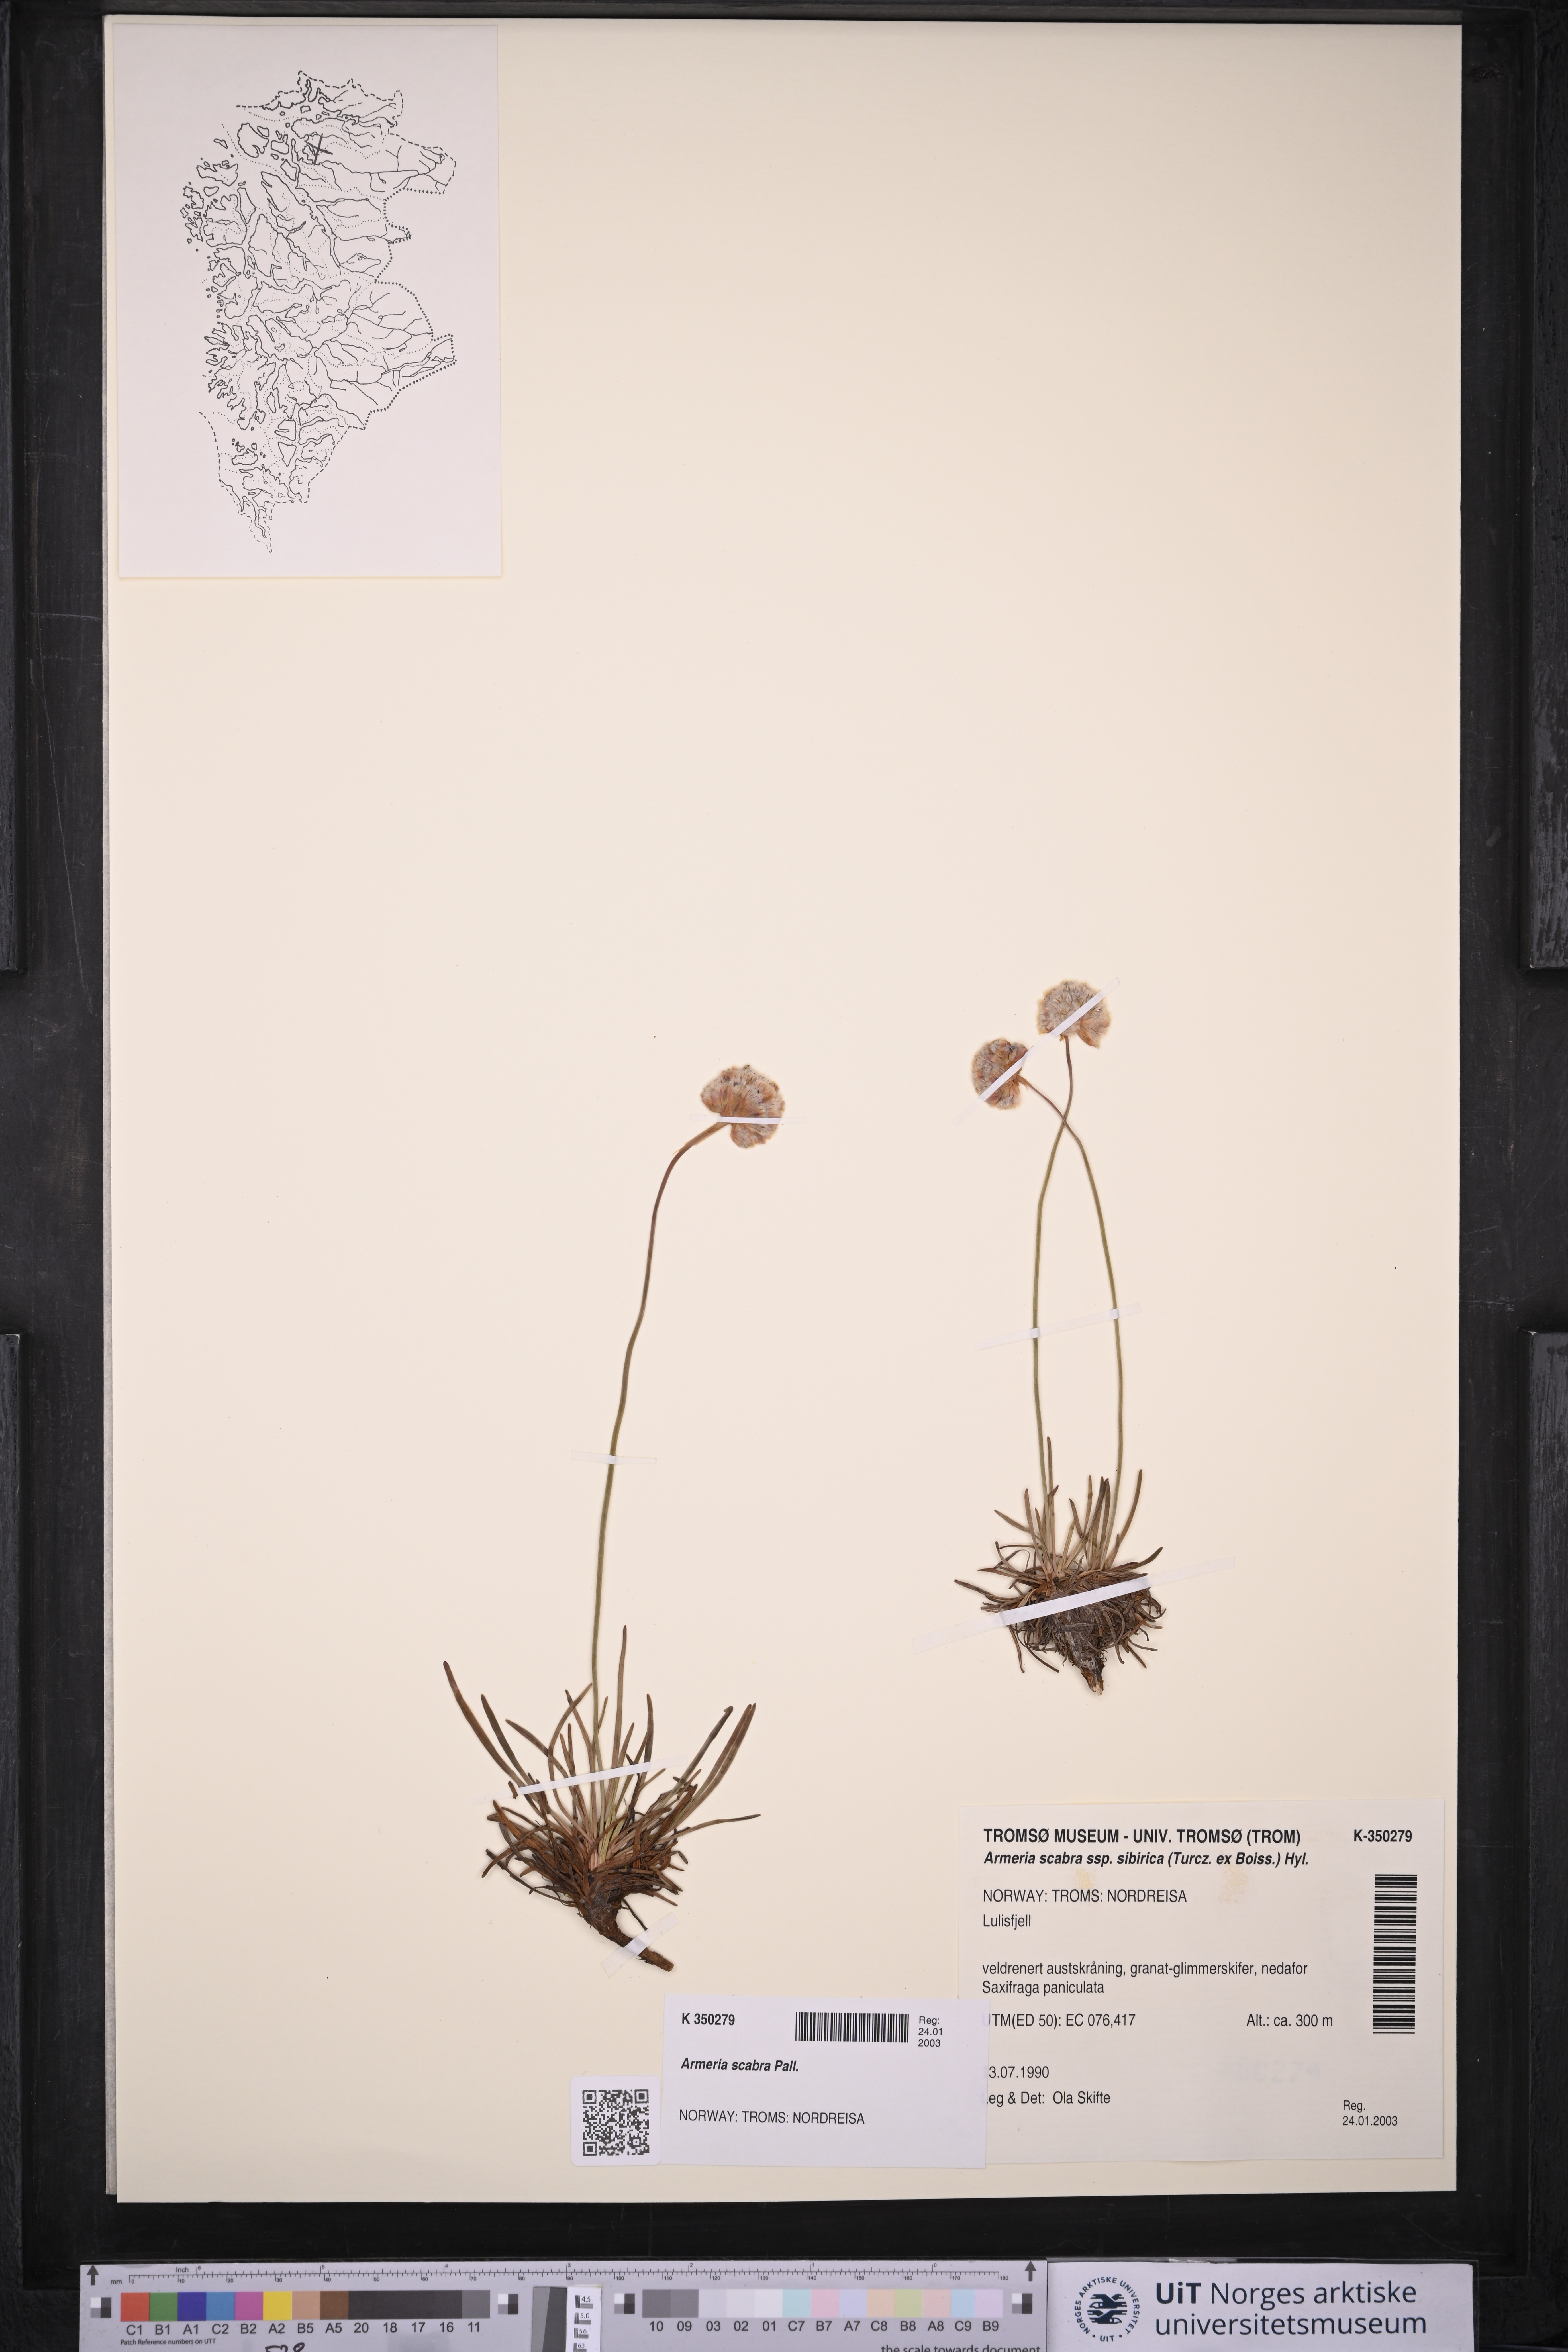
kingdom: Plantae
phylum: Tracheophyta
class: Magnoliopsida
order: Caryophyllales
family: Plumbaginaceae
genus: Armeria
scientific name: Armeria maritima
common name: Thrift
